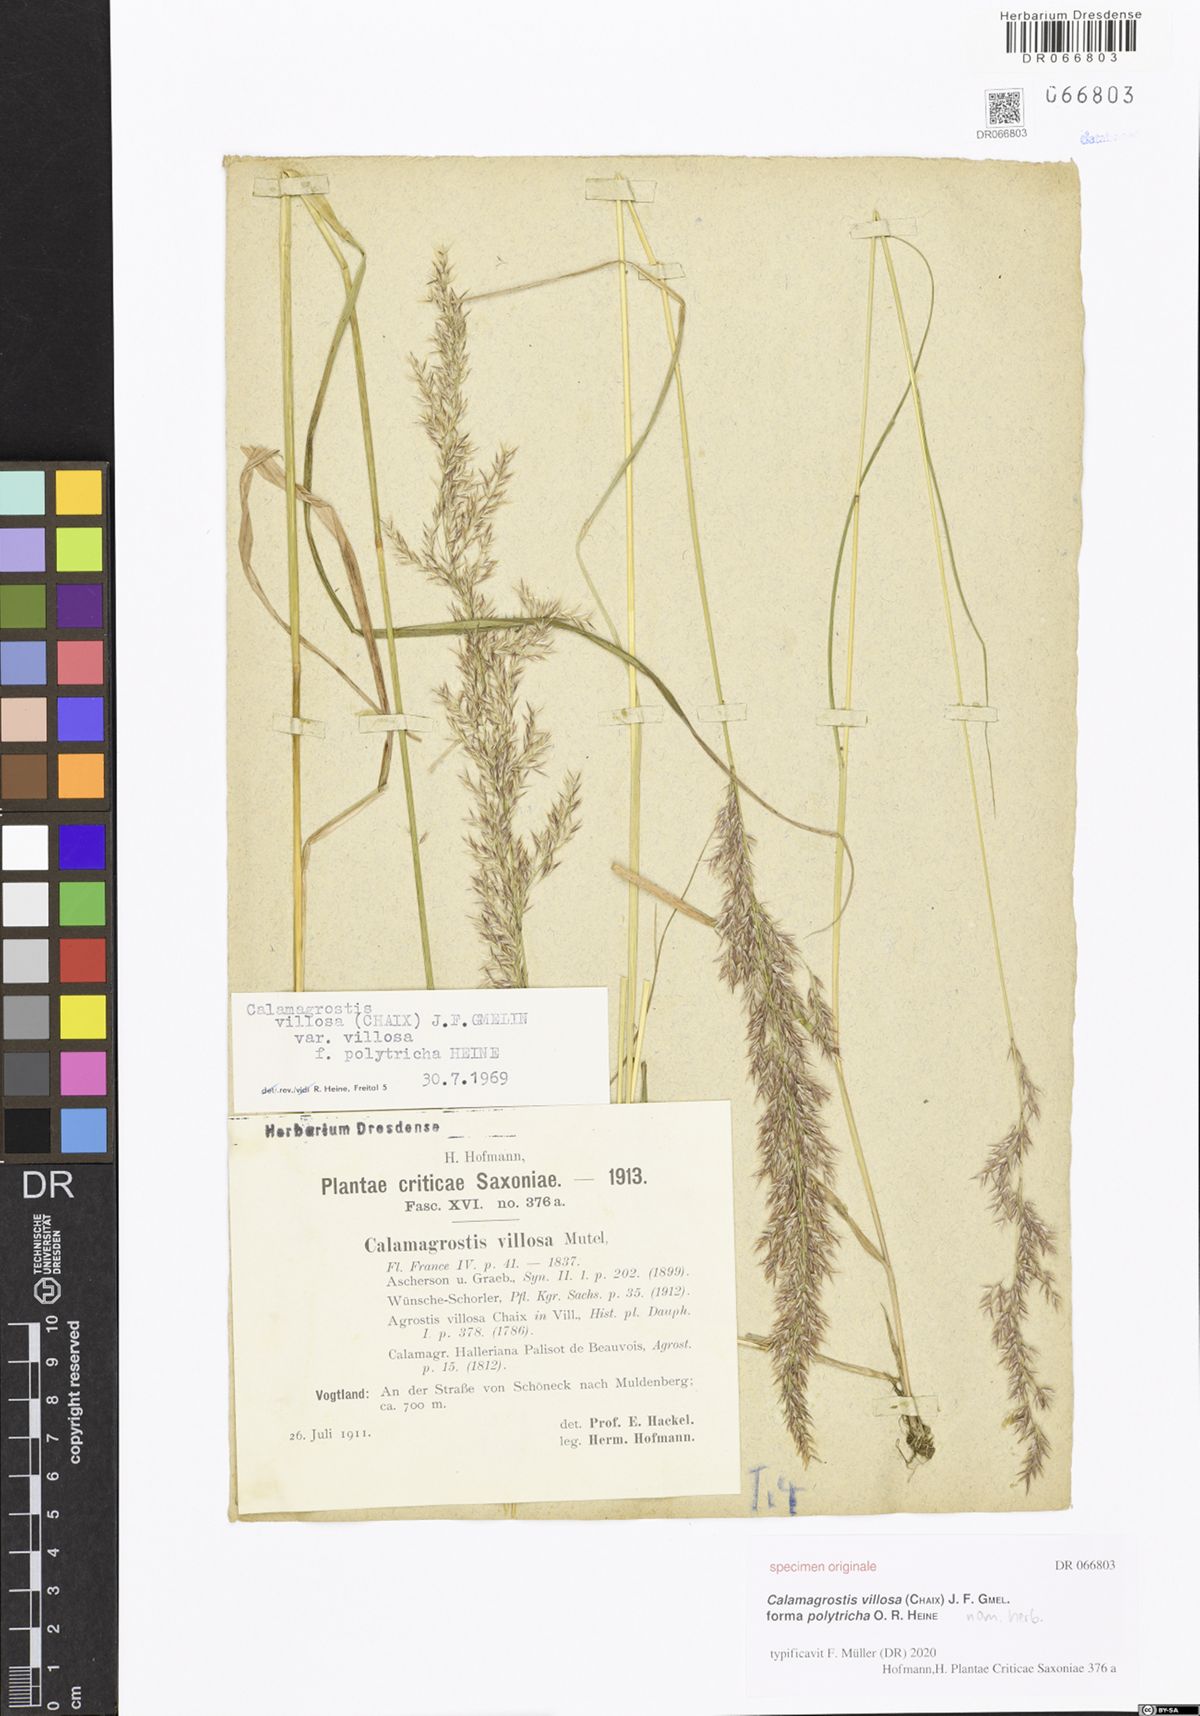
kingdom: Plantae
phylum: Tracheophyta
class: Liliopsida
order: Poales
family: Poaceae
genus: Calamagrostis
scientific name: Calamagrostis villosa
